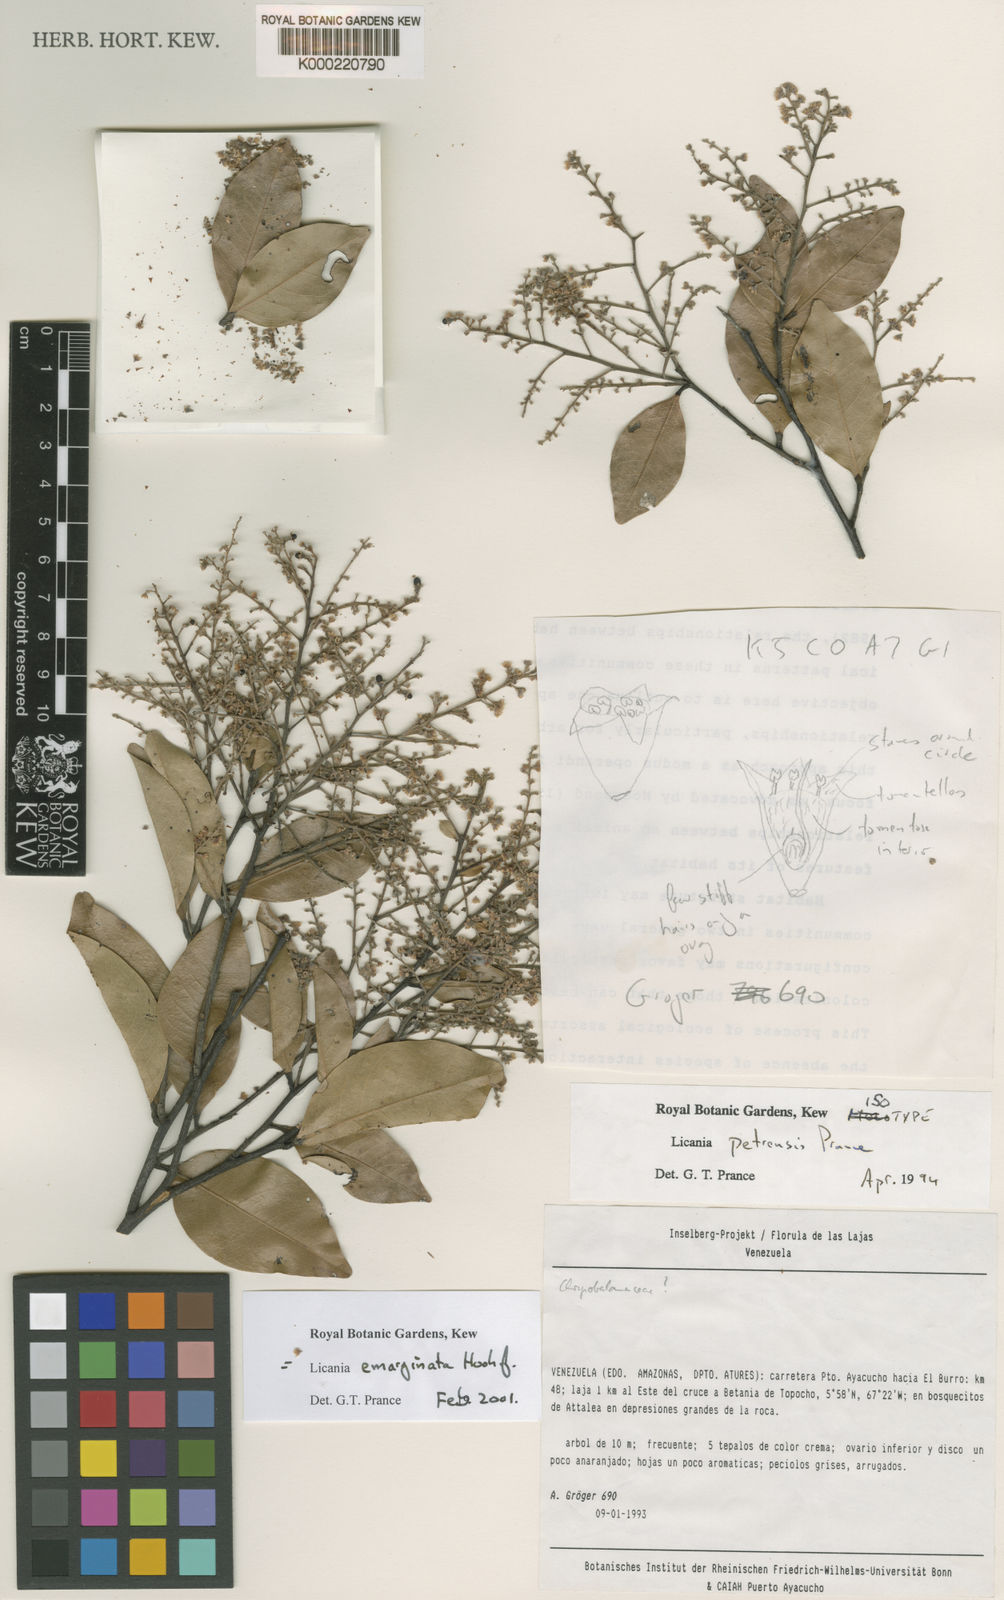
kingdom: Plantae
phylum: Tracheophyta
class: Magnoliopsida
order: Malpighiales
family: Chrysobalanaceae
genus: Leptobalanus
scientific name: Leptobalanus emarginatus
